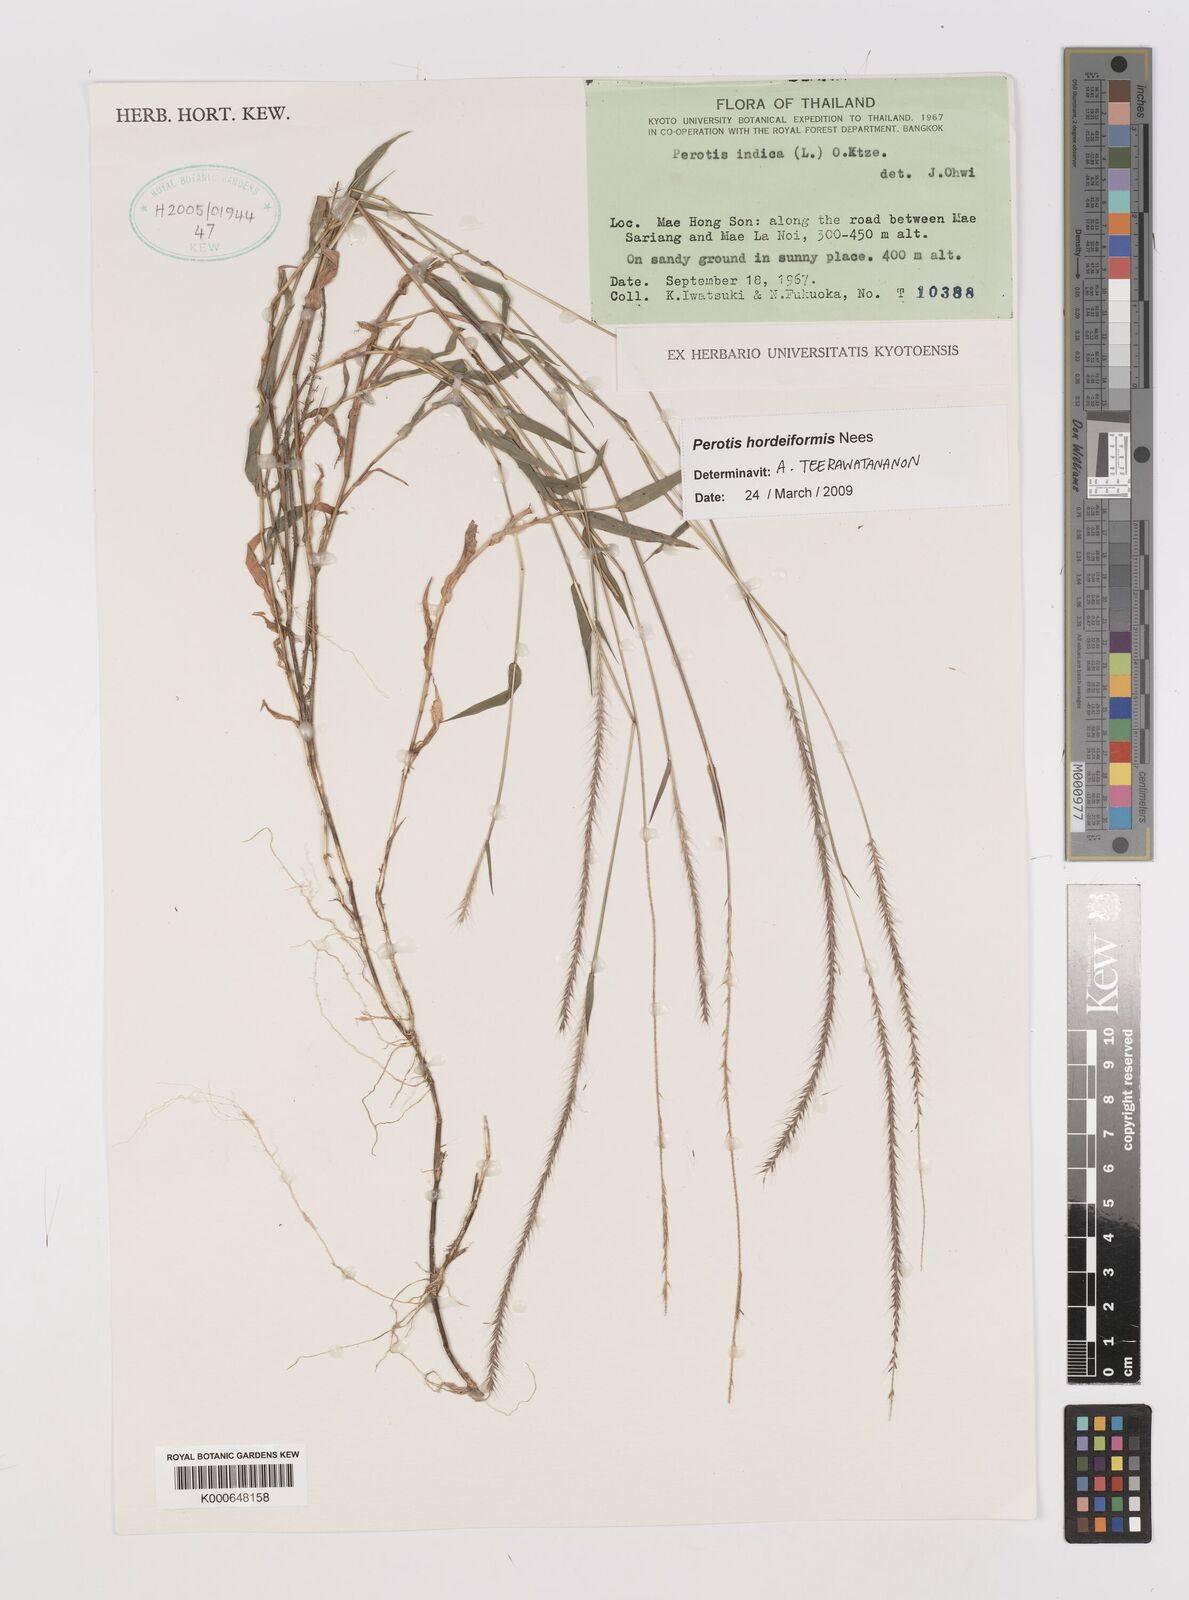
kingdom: Plantae
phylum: Tracheophyta
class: Liliopsida
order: Poales
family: Poaceae
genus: Perotis
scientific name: Perotis hordeiformis
